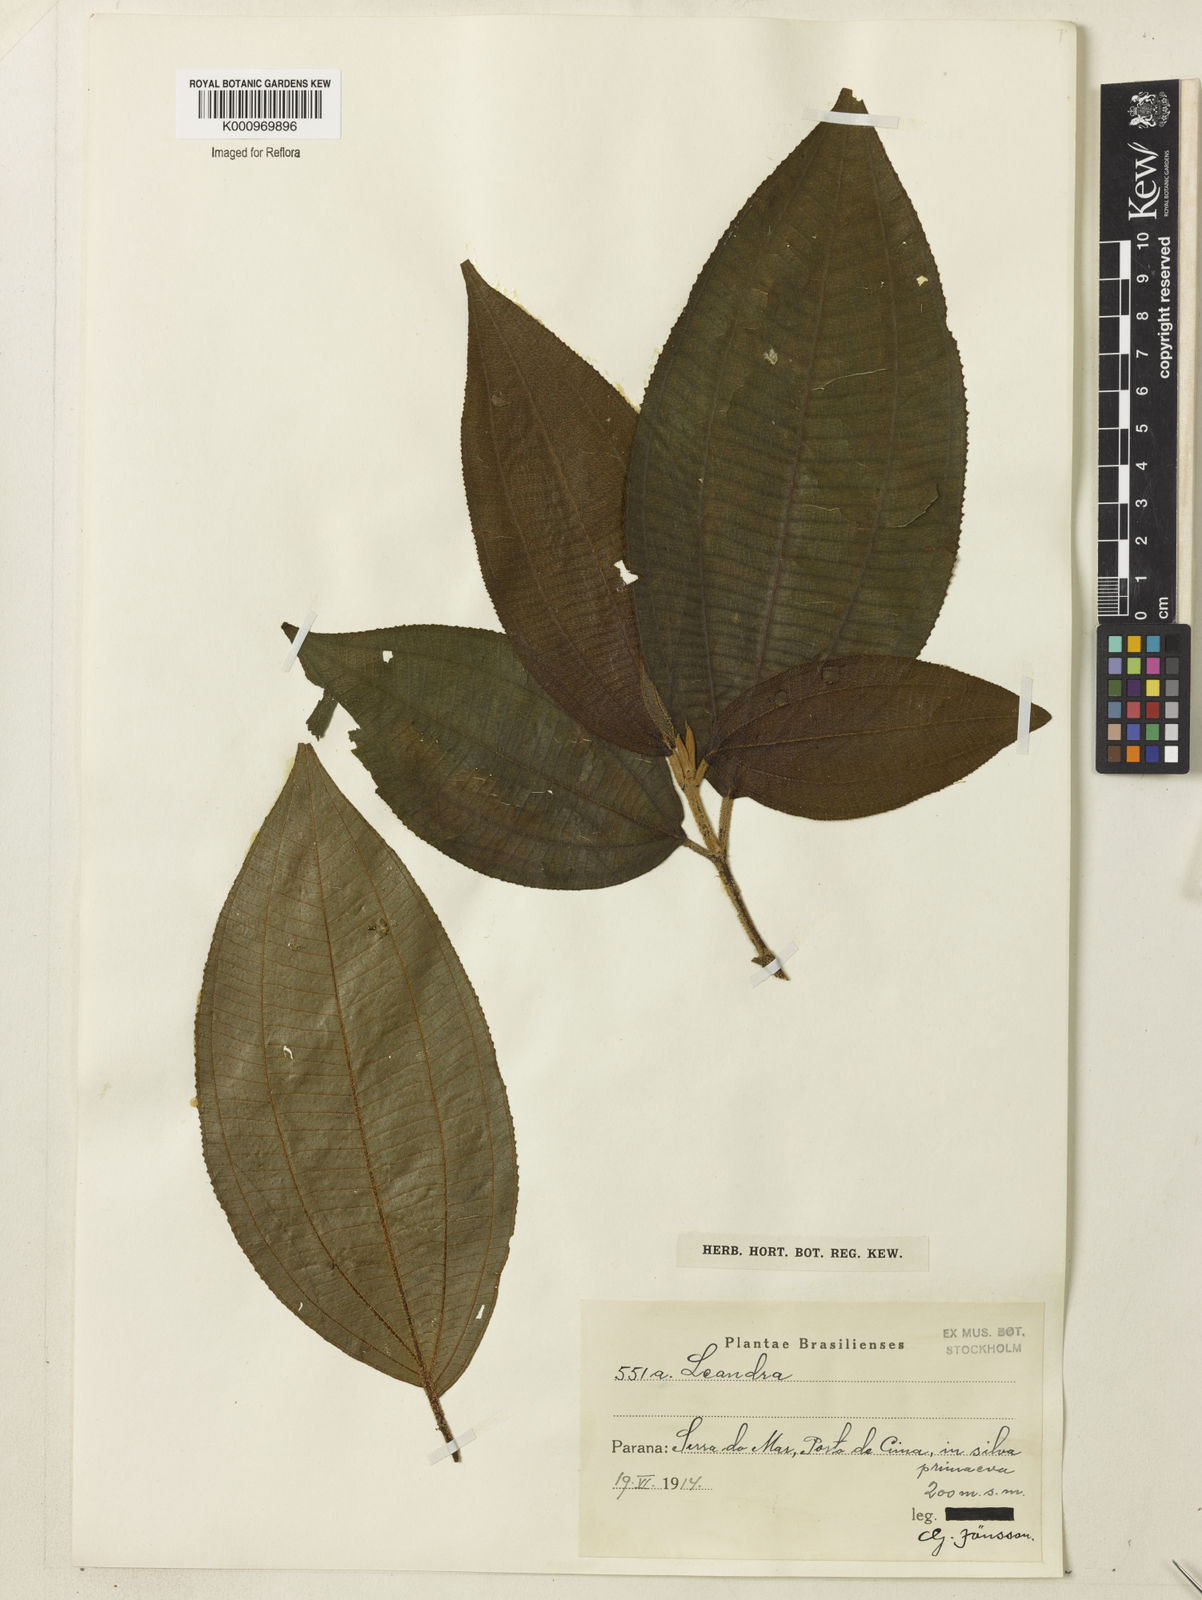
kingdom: Plantae
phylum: Tracheophyta
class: Magnoliopsida
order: Myrtales
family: Melastomataceae
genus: Miconia
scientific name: Miconia
